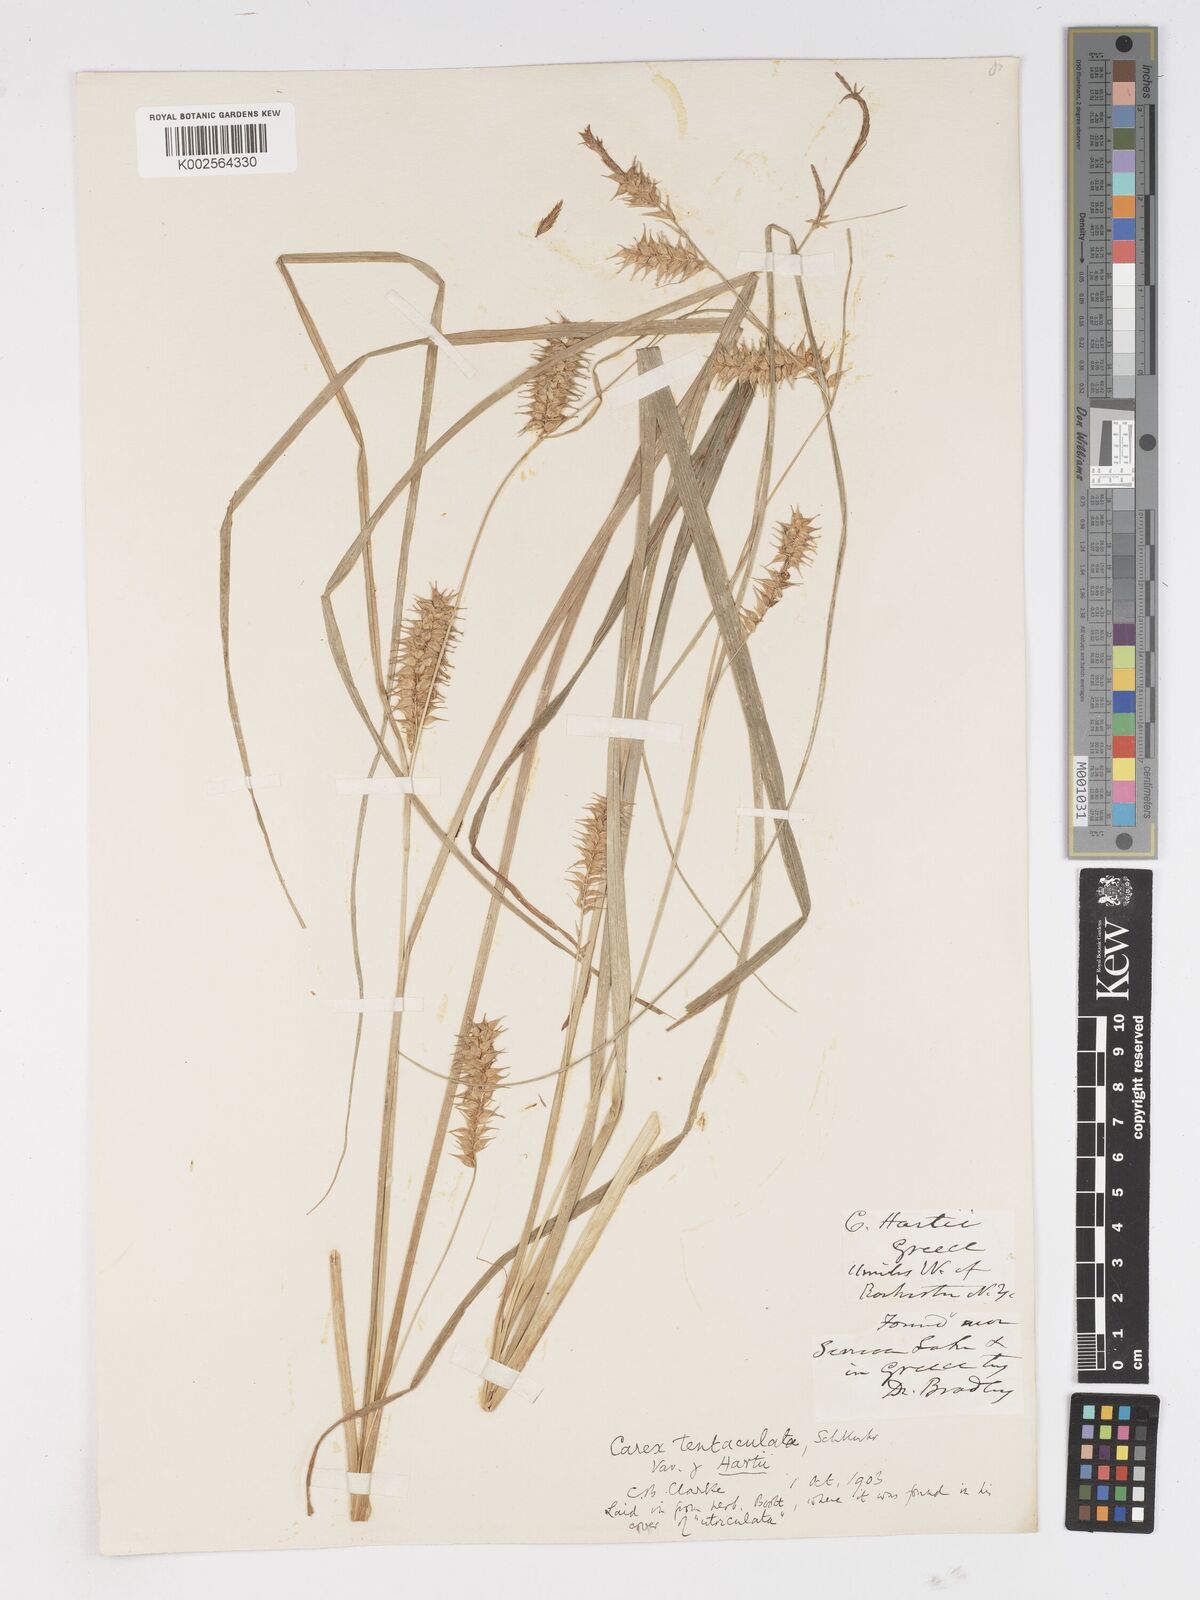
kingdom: Plantae
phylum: Tracheophyta
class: Liliopsida
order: Poales
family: Cyperaceae
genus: Carex
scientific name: Carex lurida
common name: Sallow sedge
